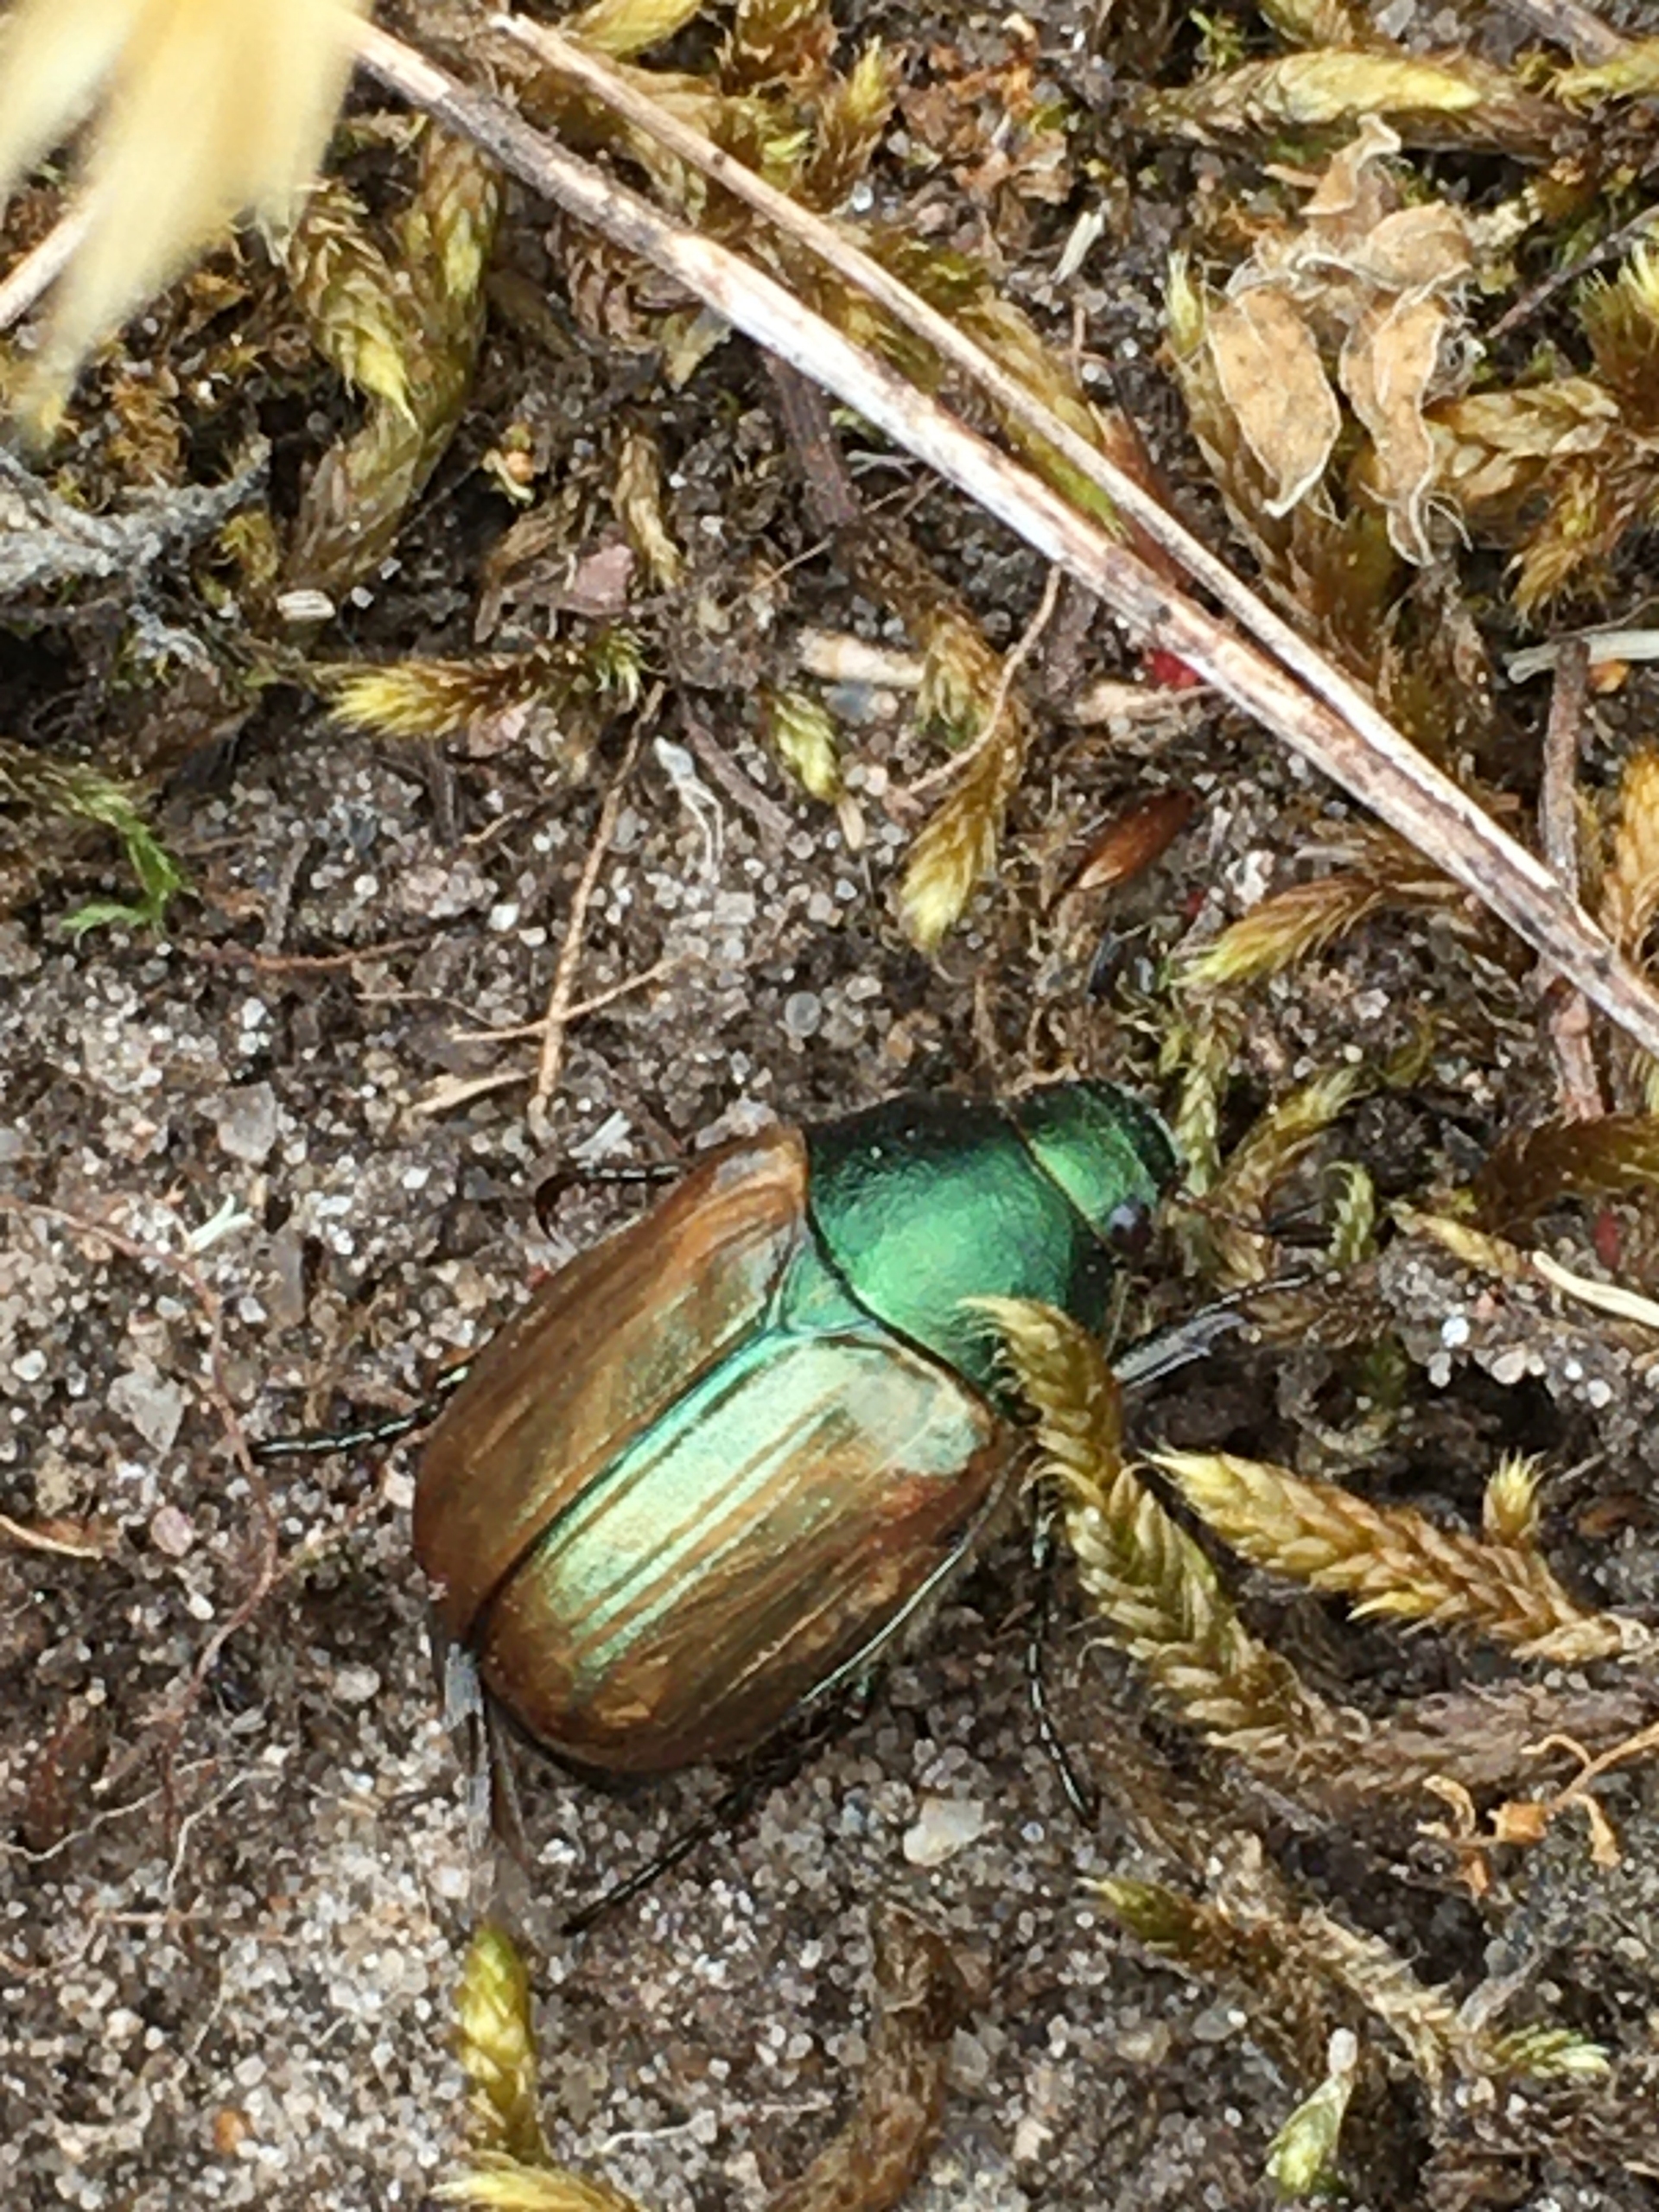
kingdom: Animalia
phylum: Arthropoda
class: Insecta
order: Coleoptera
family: Scarabaeidae
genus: Anomala
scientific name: Anomala dubia
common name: Klitoldenborre
